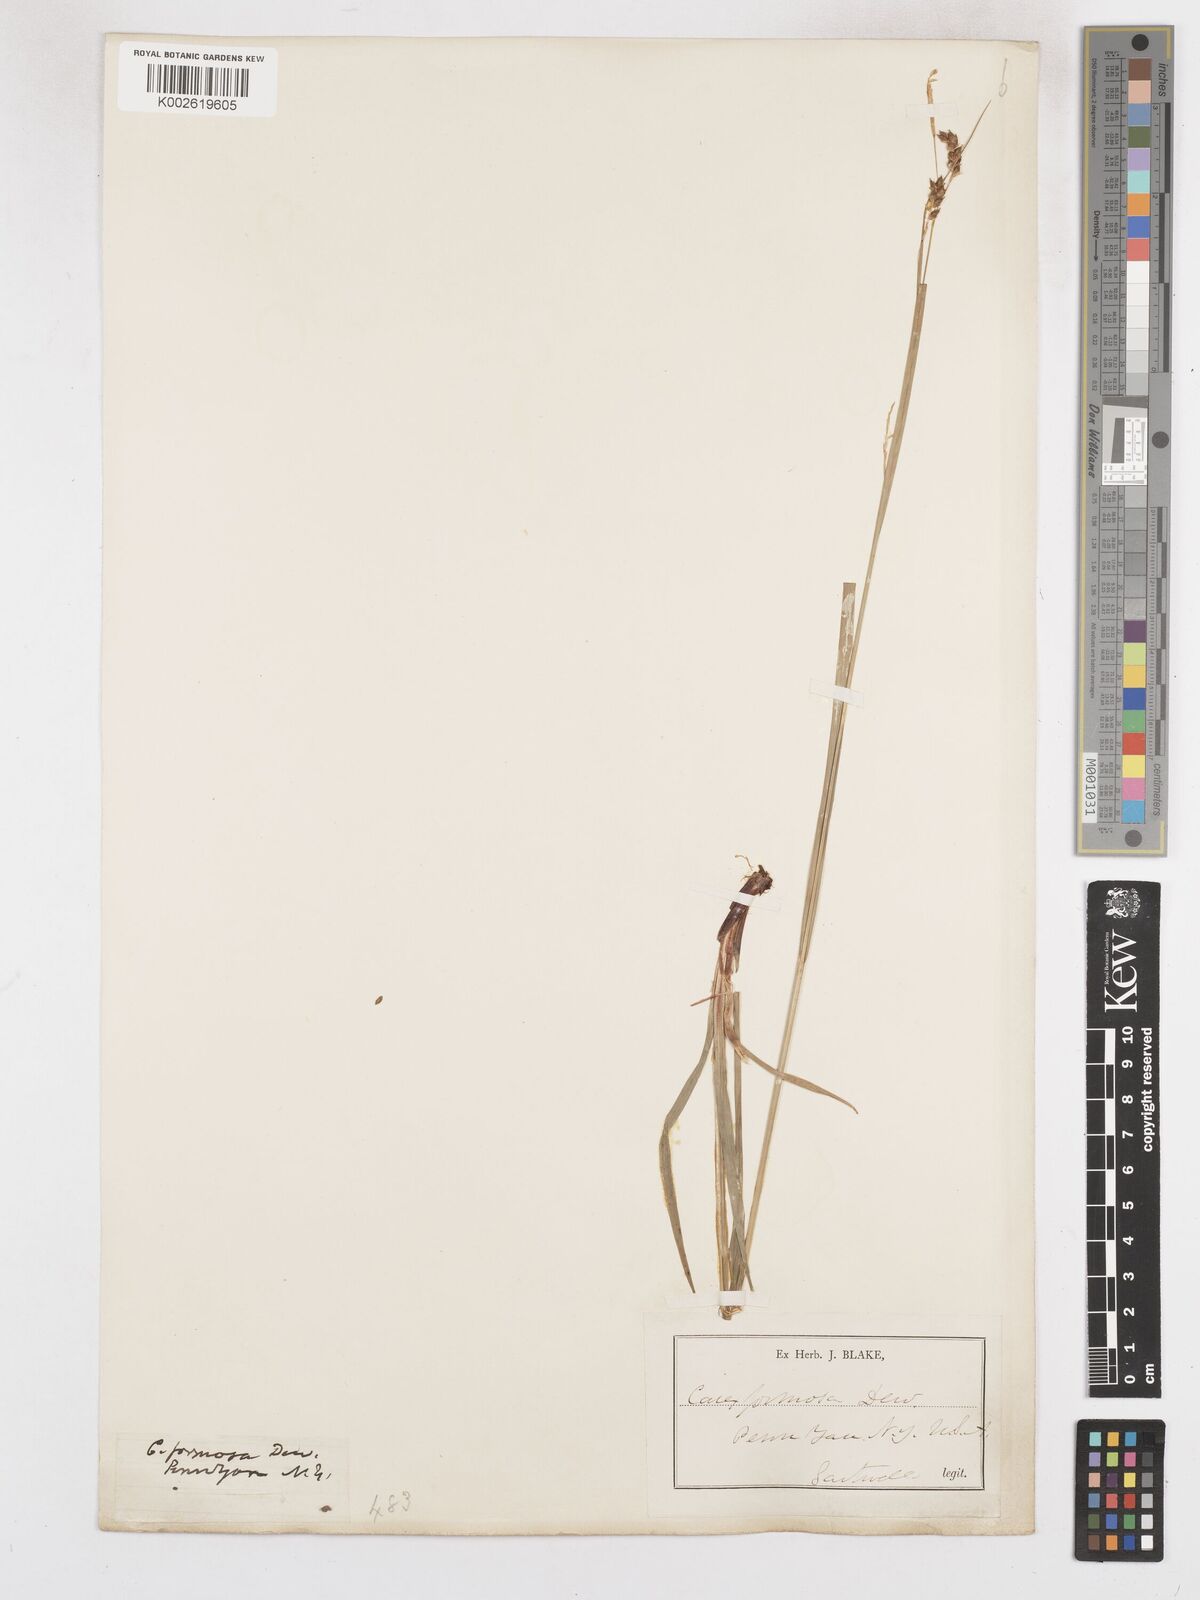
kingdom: Plantae
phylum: Tracheophyta
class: Liliopsida
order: Poales
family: Cyperaceae
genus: Carex
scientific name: Carex formosa
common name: Awnless graceful sedge
